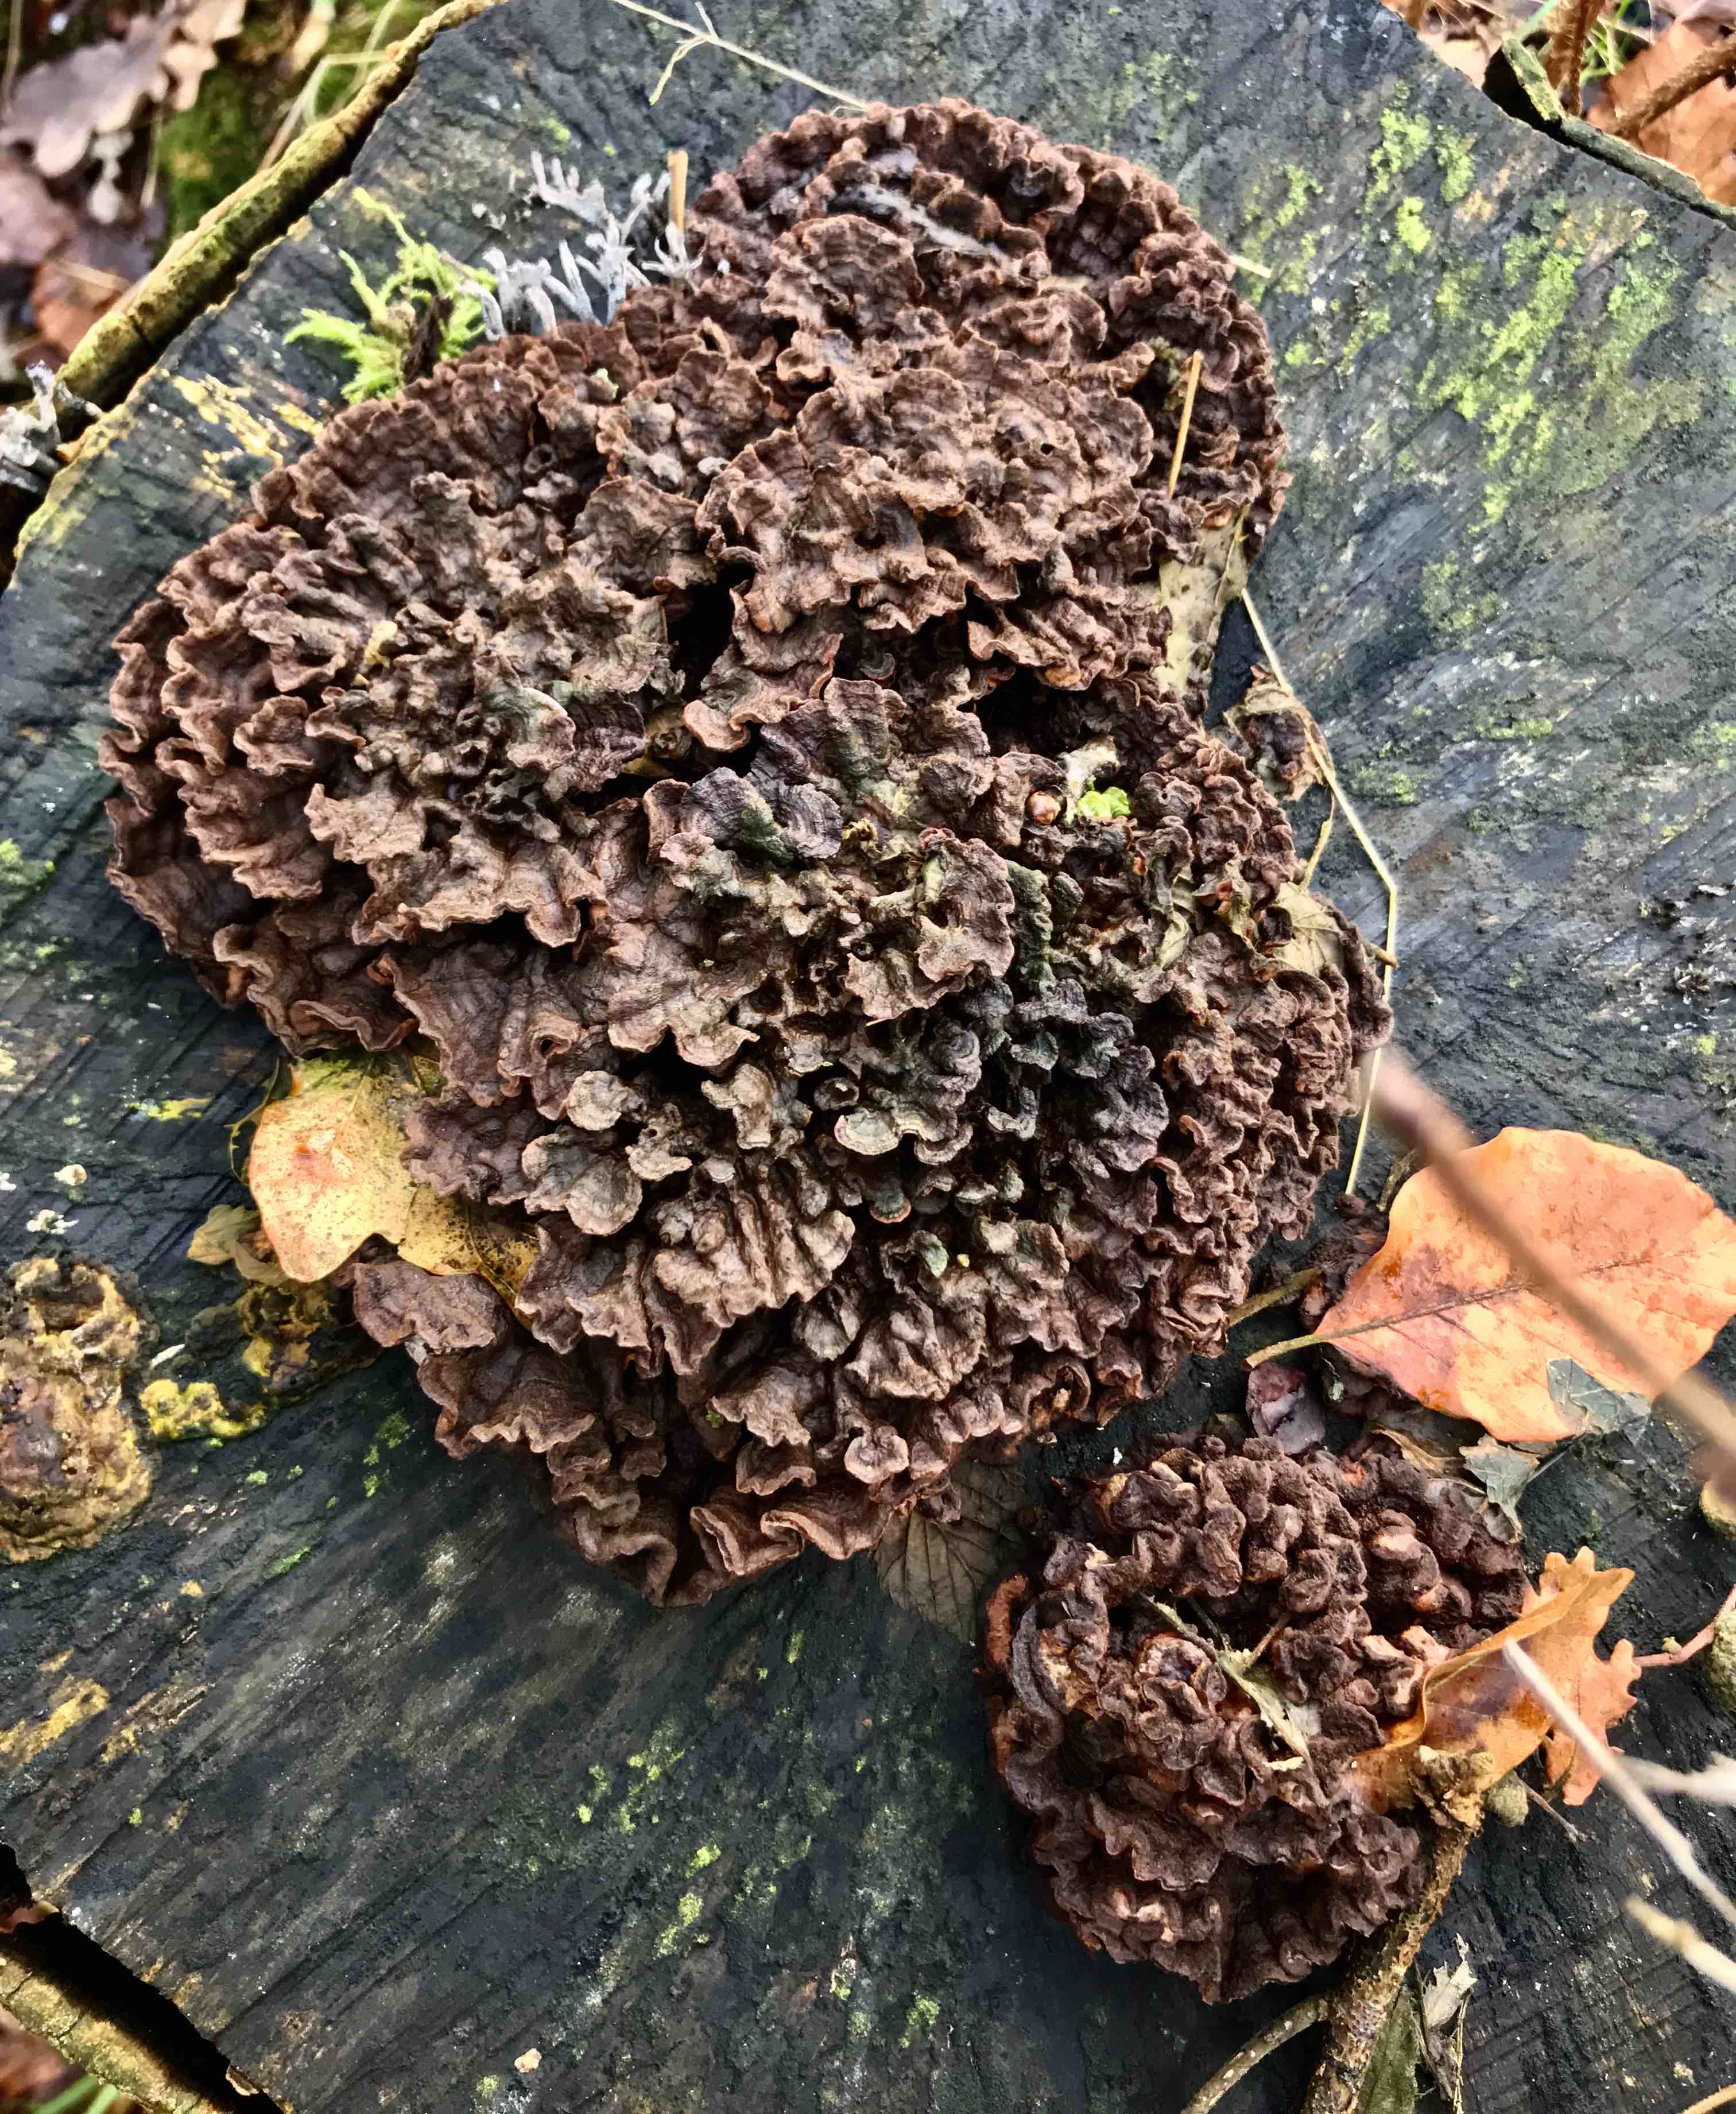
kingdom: Fungi
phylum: Basidiomycota
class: Agaricomycetes
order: Russulales
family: Hericiaceae
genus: Laxitextum
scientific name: Laxitextum bicolor
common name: tvefarvet filtskind
